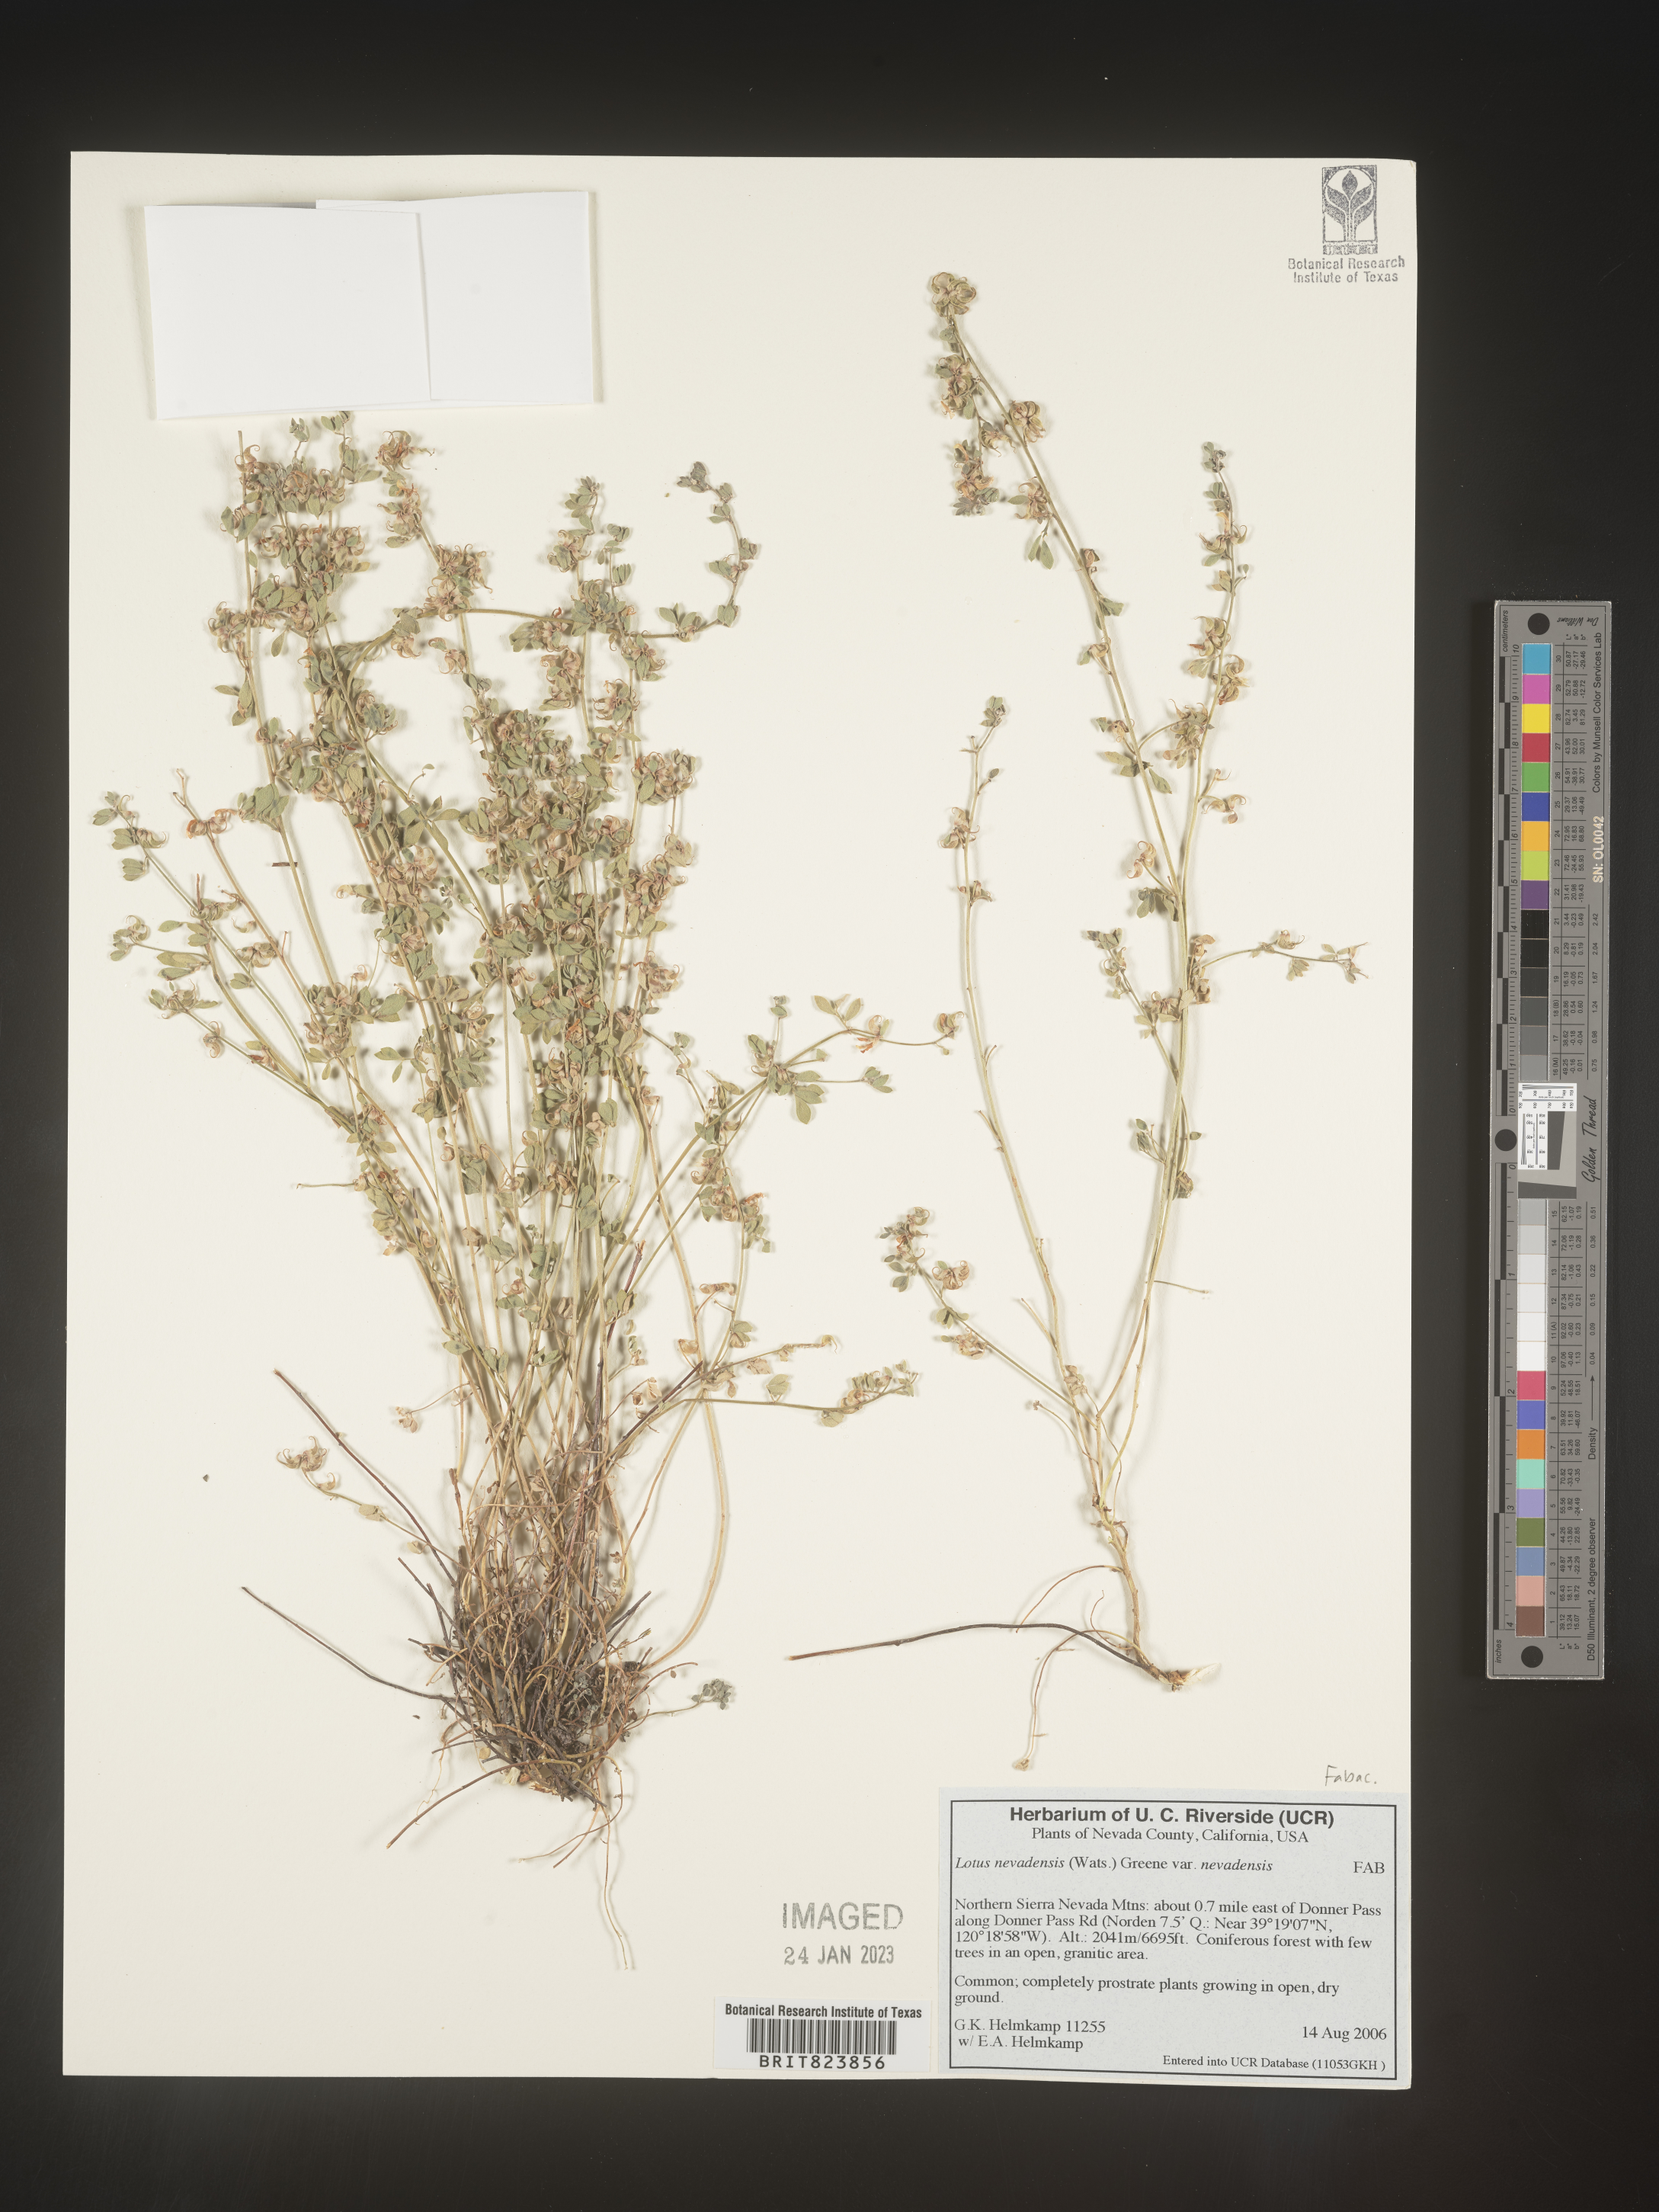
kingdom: Plantae
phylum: Tracheophyta
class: Magnoliopsida
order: Fabales
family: Fabaceae
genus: Acmispon
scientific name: Acmispon decumbens
